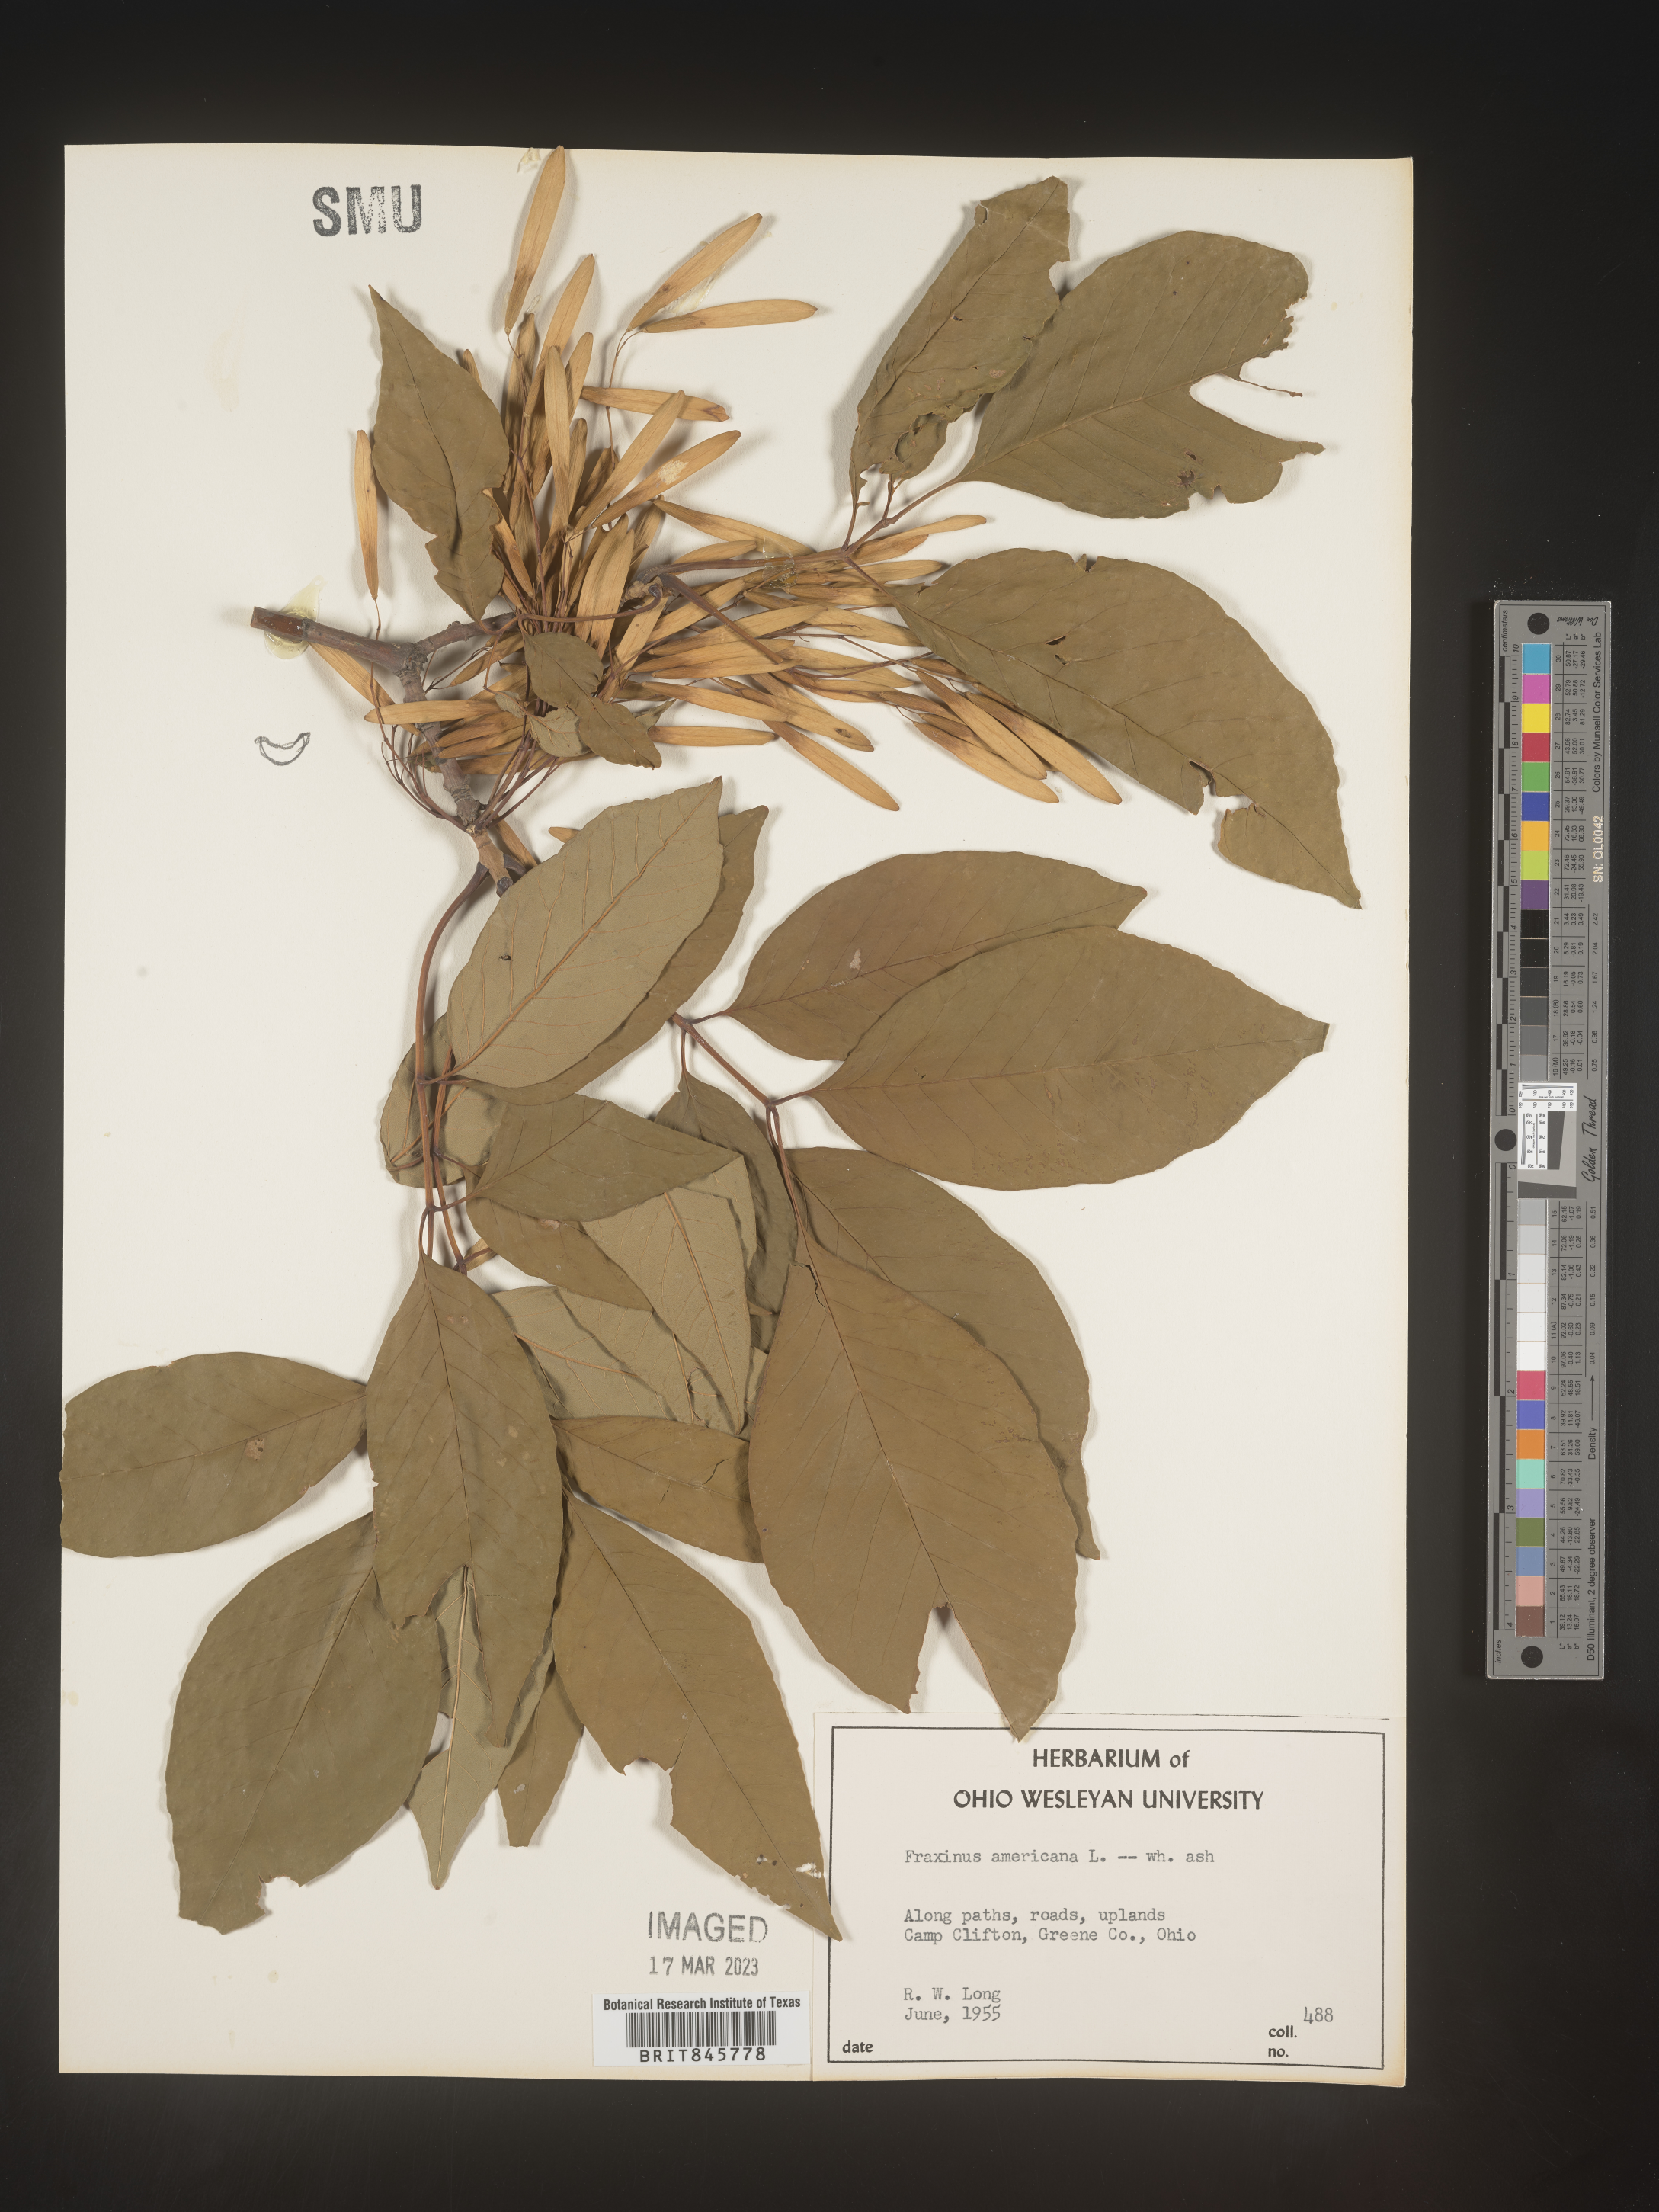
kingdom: Plantae
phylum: Tracheophyta
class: Magnoliopsida
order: Lamiales
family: Oleaceae
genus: Fraxinus
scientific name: Fraxinus americana
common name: White ash
